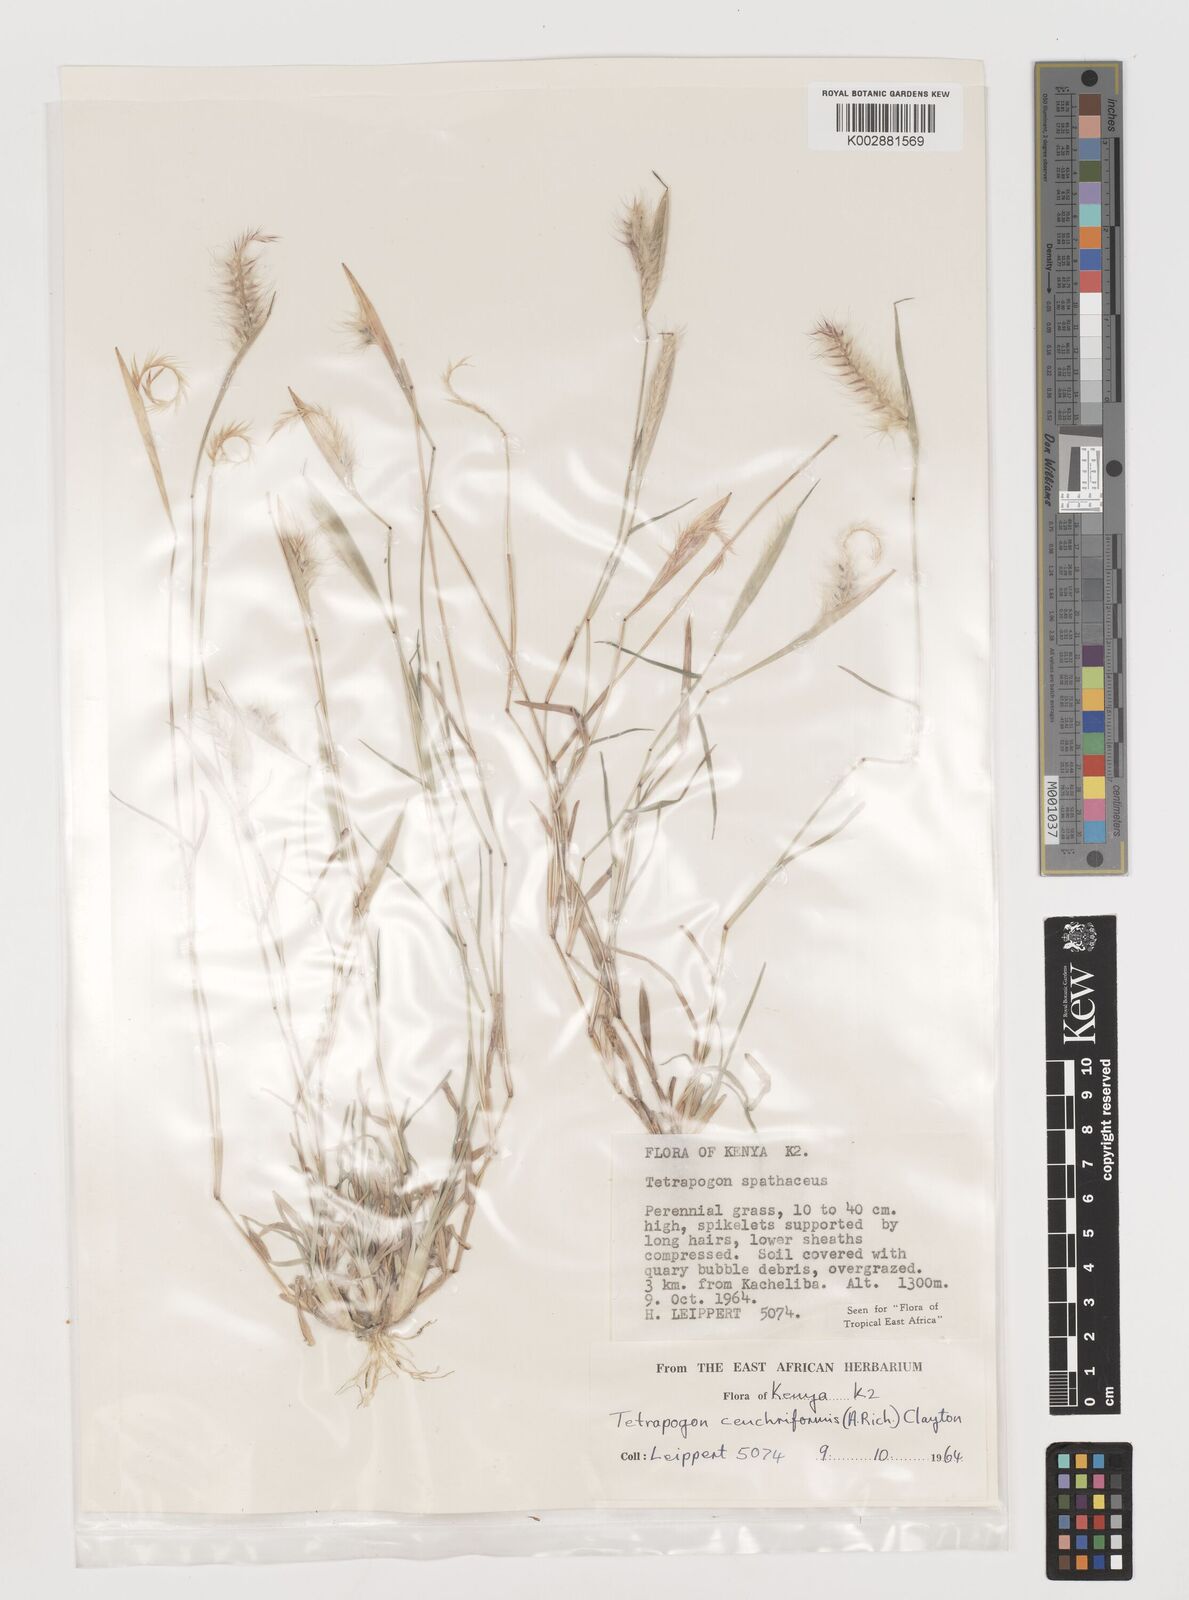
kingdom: Plantae
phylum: Tracheophyta
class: Liliopsida
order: Poales
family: Poaceae
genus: Tetrapogon
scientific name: Tetrapogon cenchriformis
